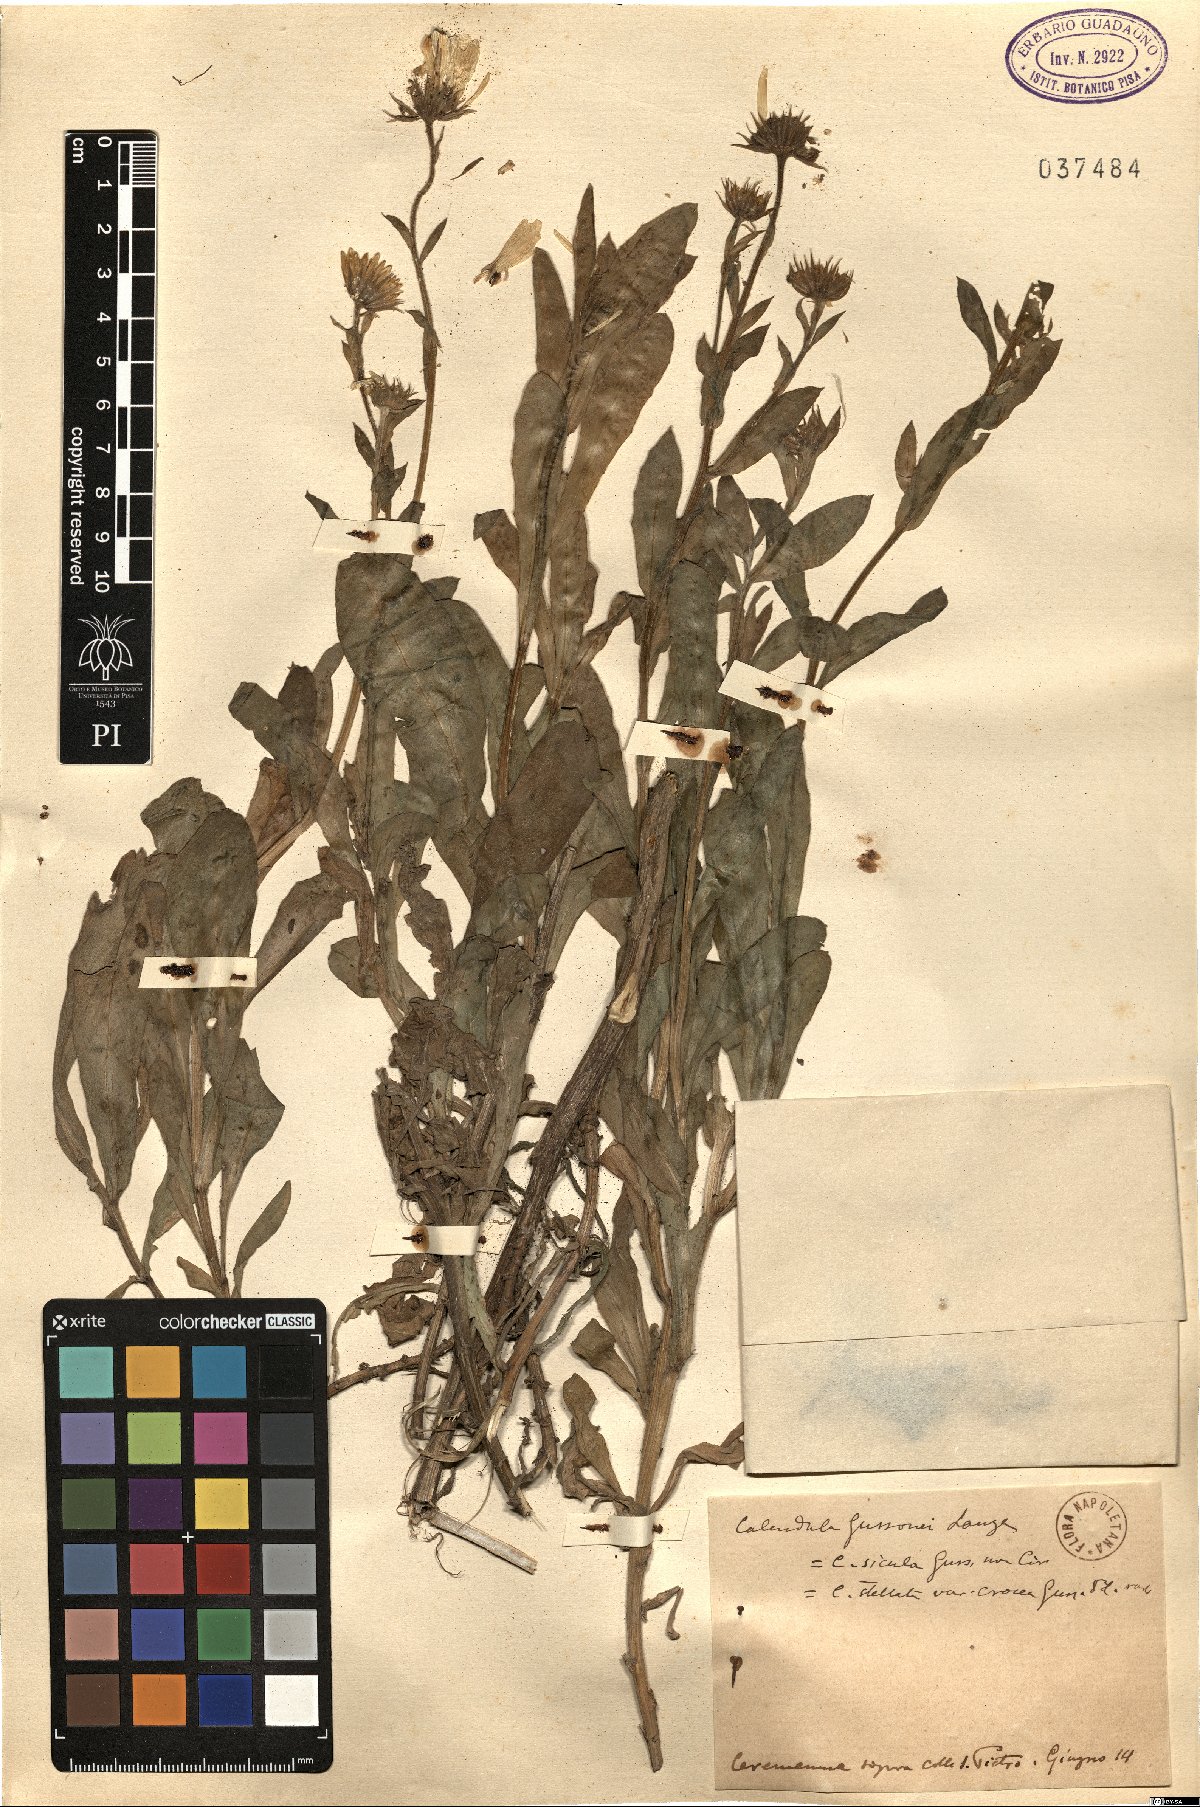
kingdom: Plantae
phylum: Tracheophyta
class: Magnoliopsida
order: Asterales
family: Asteraceae
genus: Calendula
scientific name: Calendula suffruticosa
